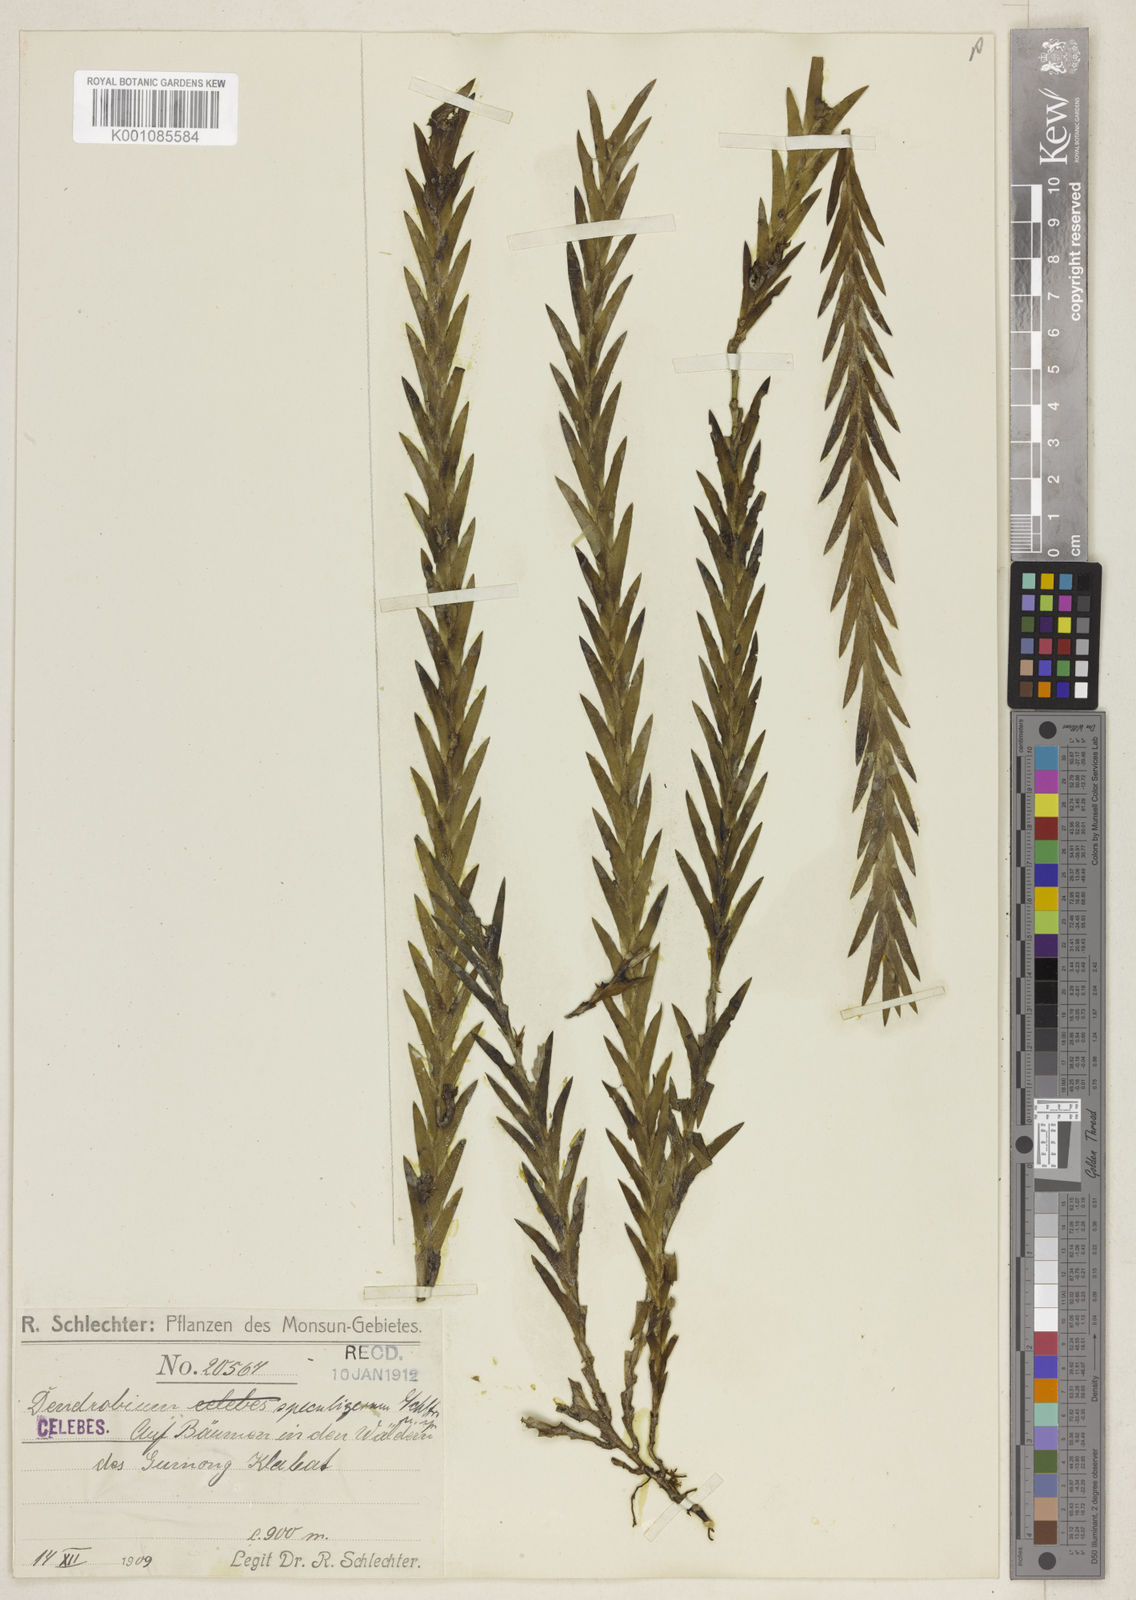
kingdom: Plantae
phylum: Tracheophyta
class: Liliopsida
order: Asparagales
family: Orchidaceae
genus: Oxystophyllum
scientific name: Oxystophyllum speculigerum
